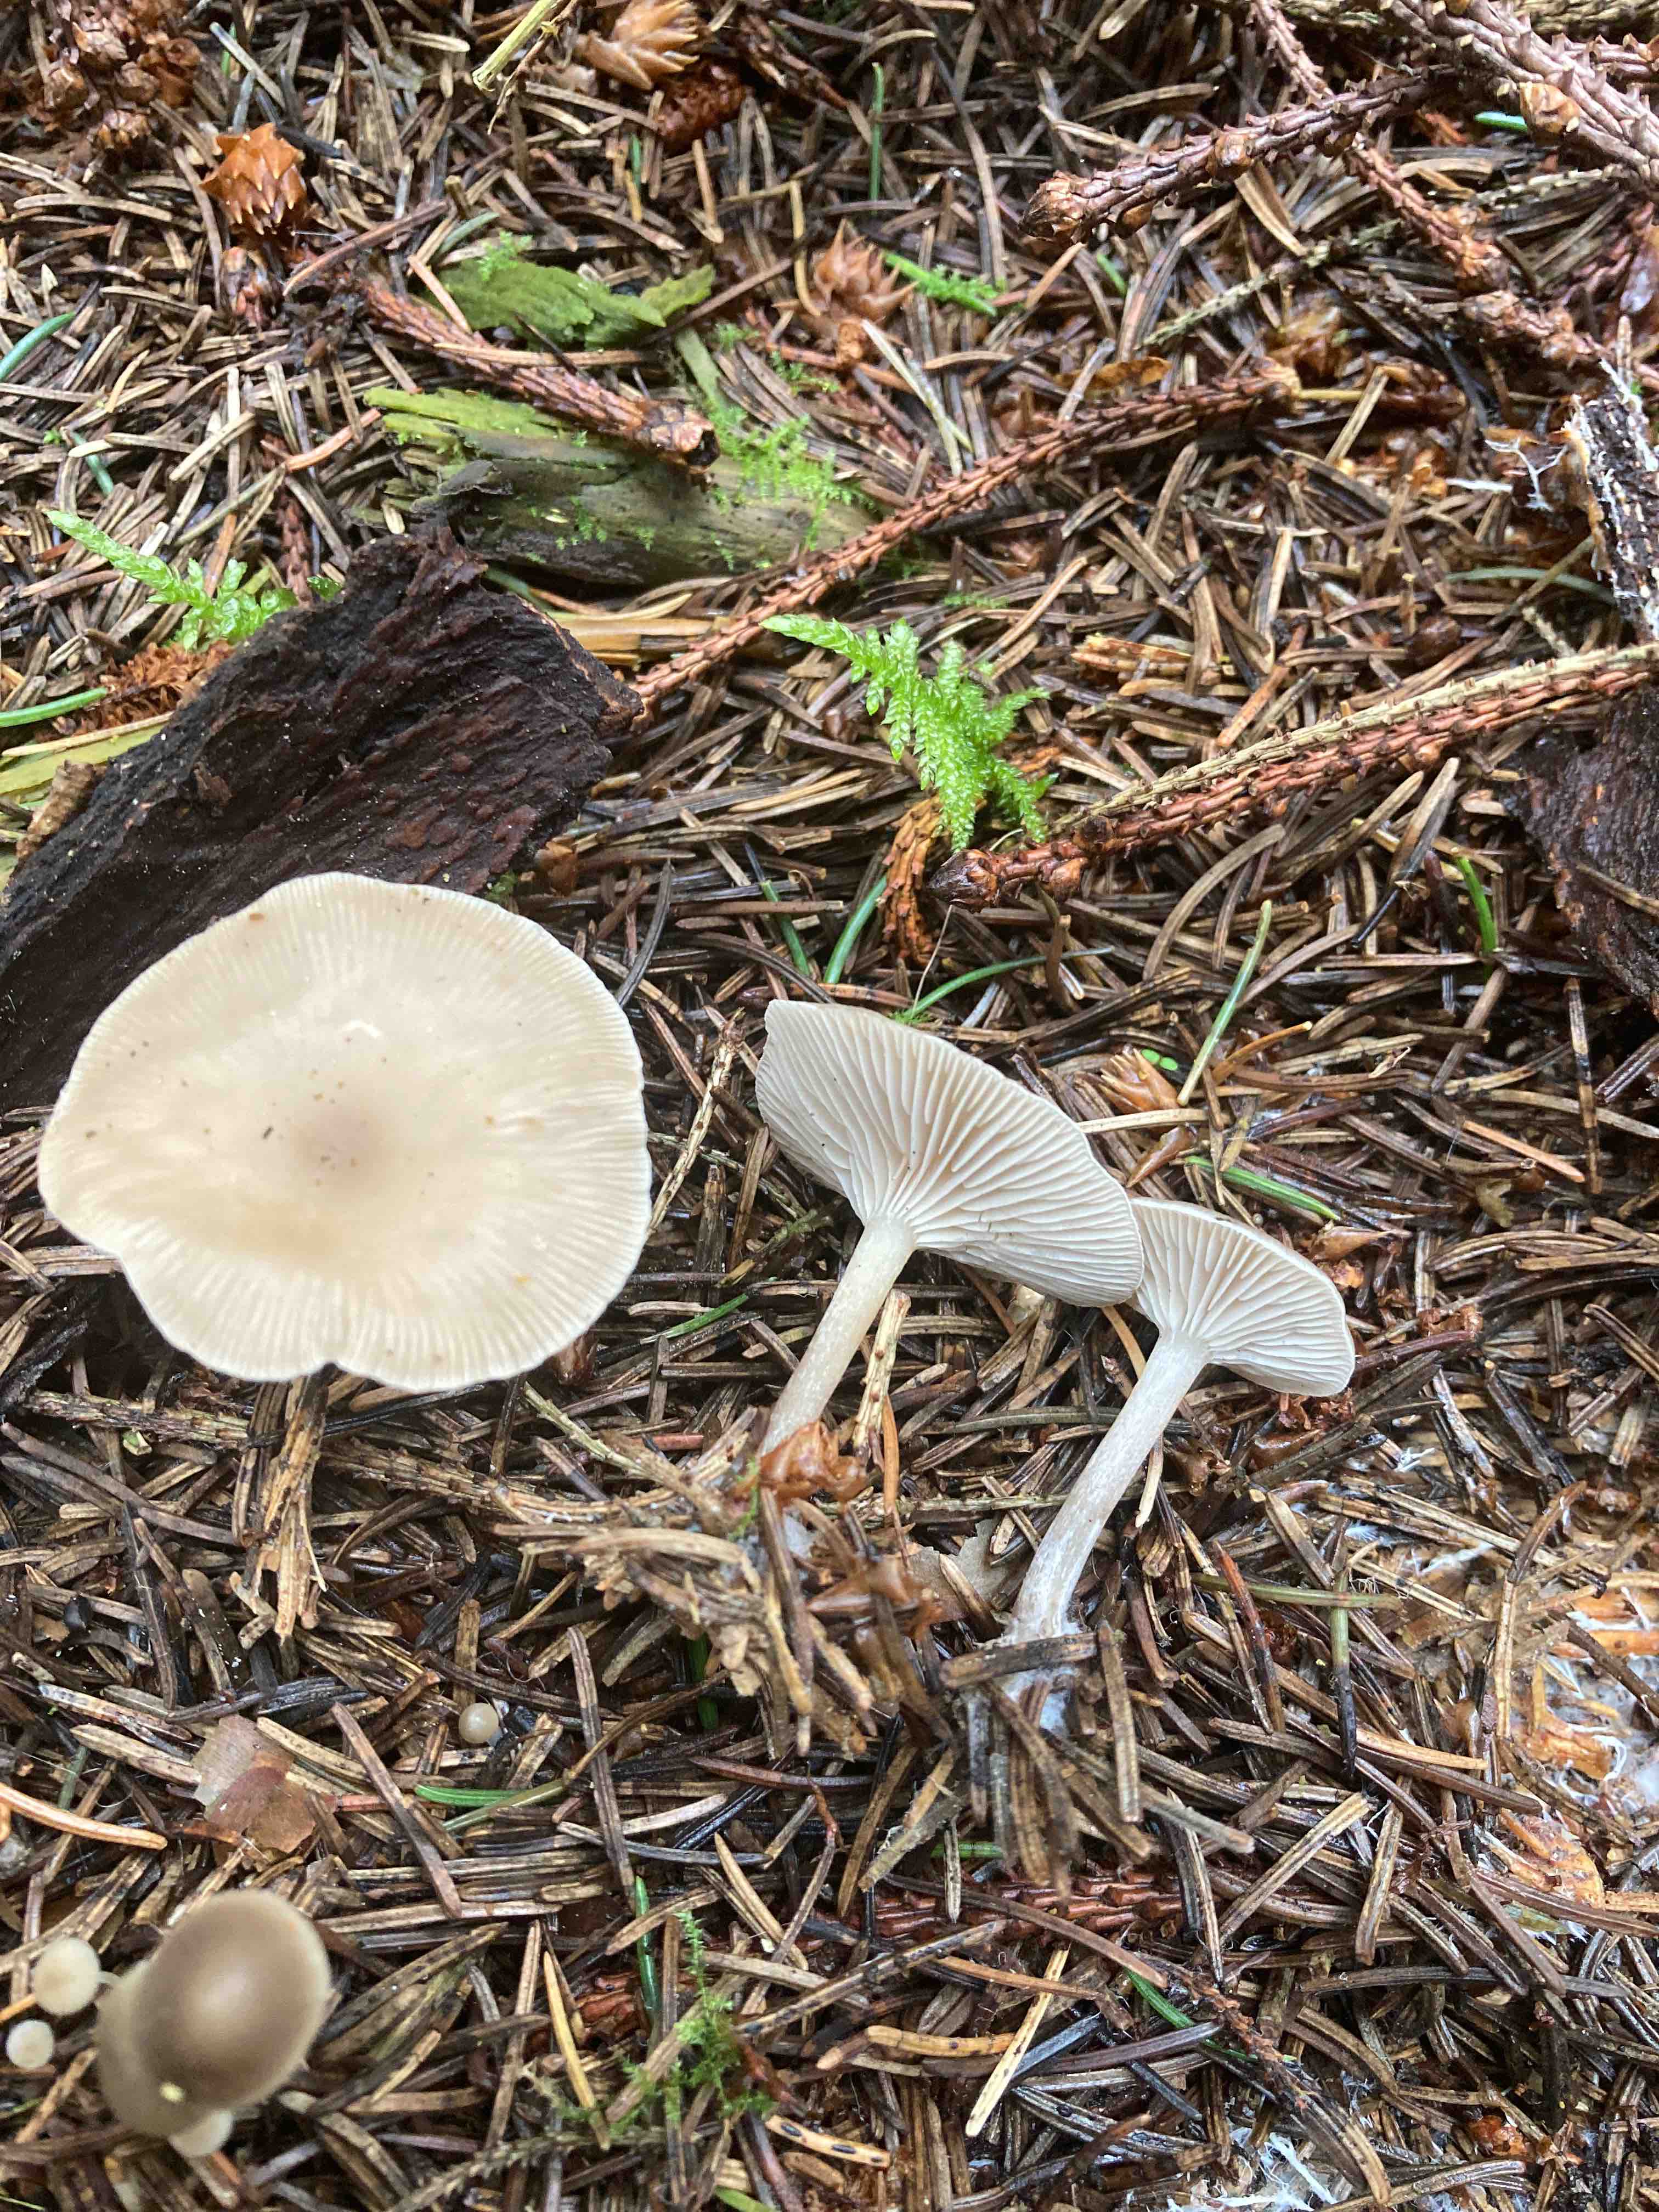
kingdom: Fungi
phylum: Basidiomycota
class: Agaricomycetes
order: Agaricales
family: Tricholomataceae
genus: Clitocybe
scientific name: Clitocybe metachroa
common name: grå tragthat
